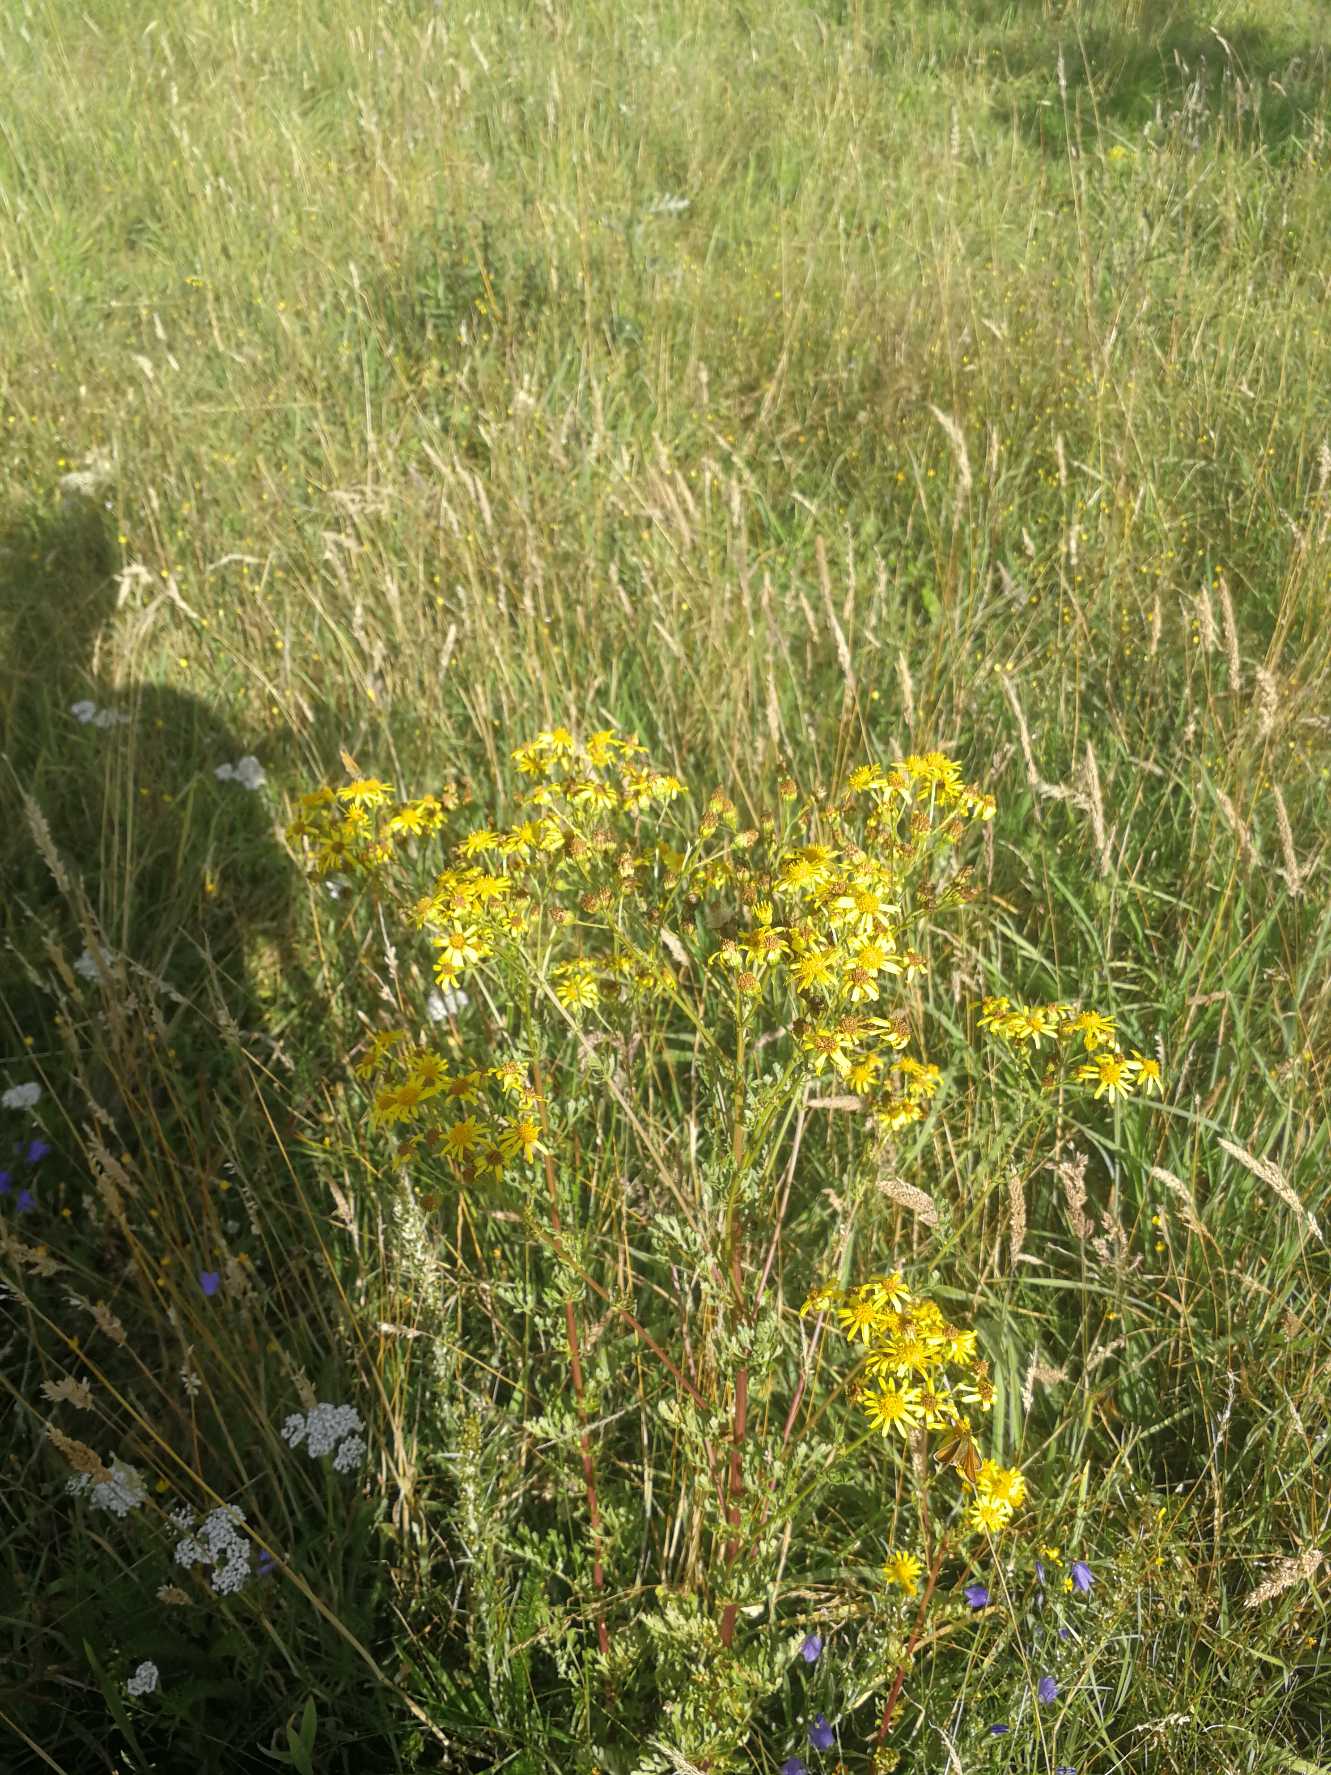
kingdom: Plantae
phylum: Tracheophyta
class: Magnoliopsida
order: Asterales
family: Asteraceae
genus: Jacobaea
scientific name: Jacobaea vulgaris
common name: Eng-brandbæger
